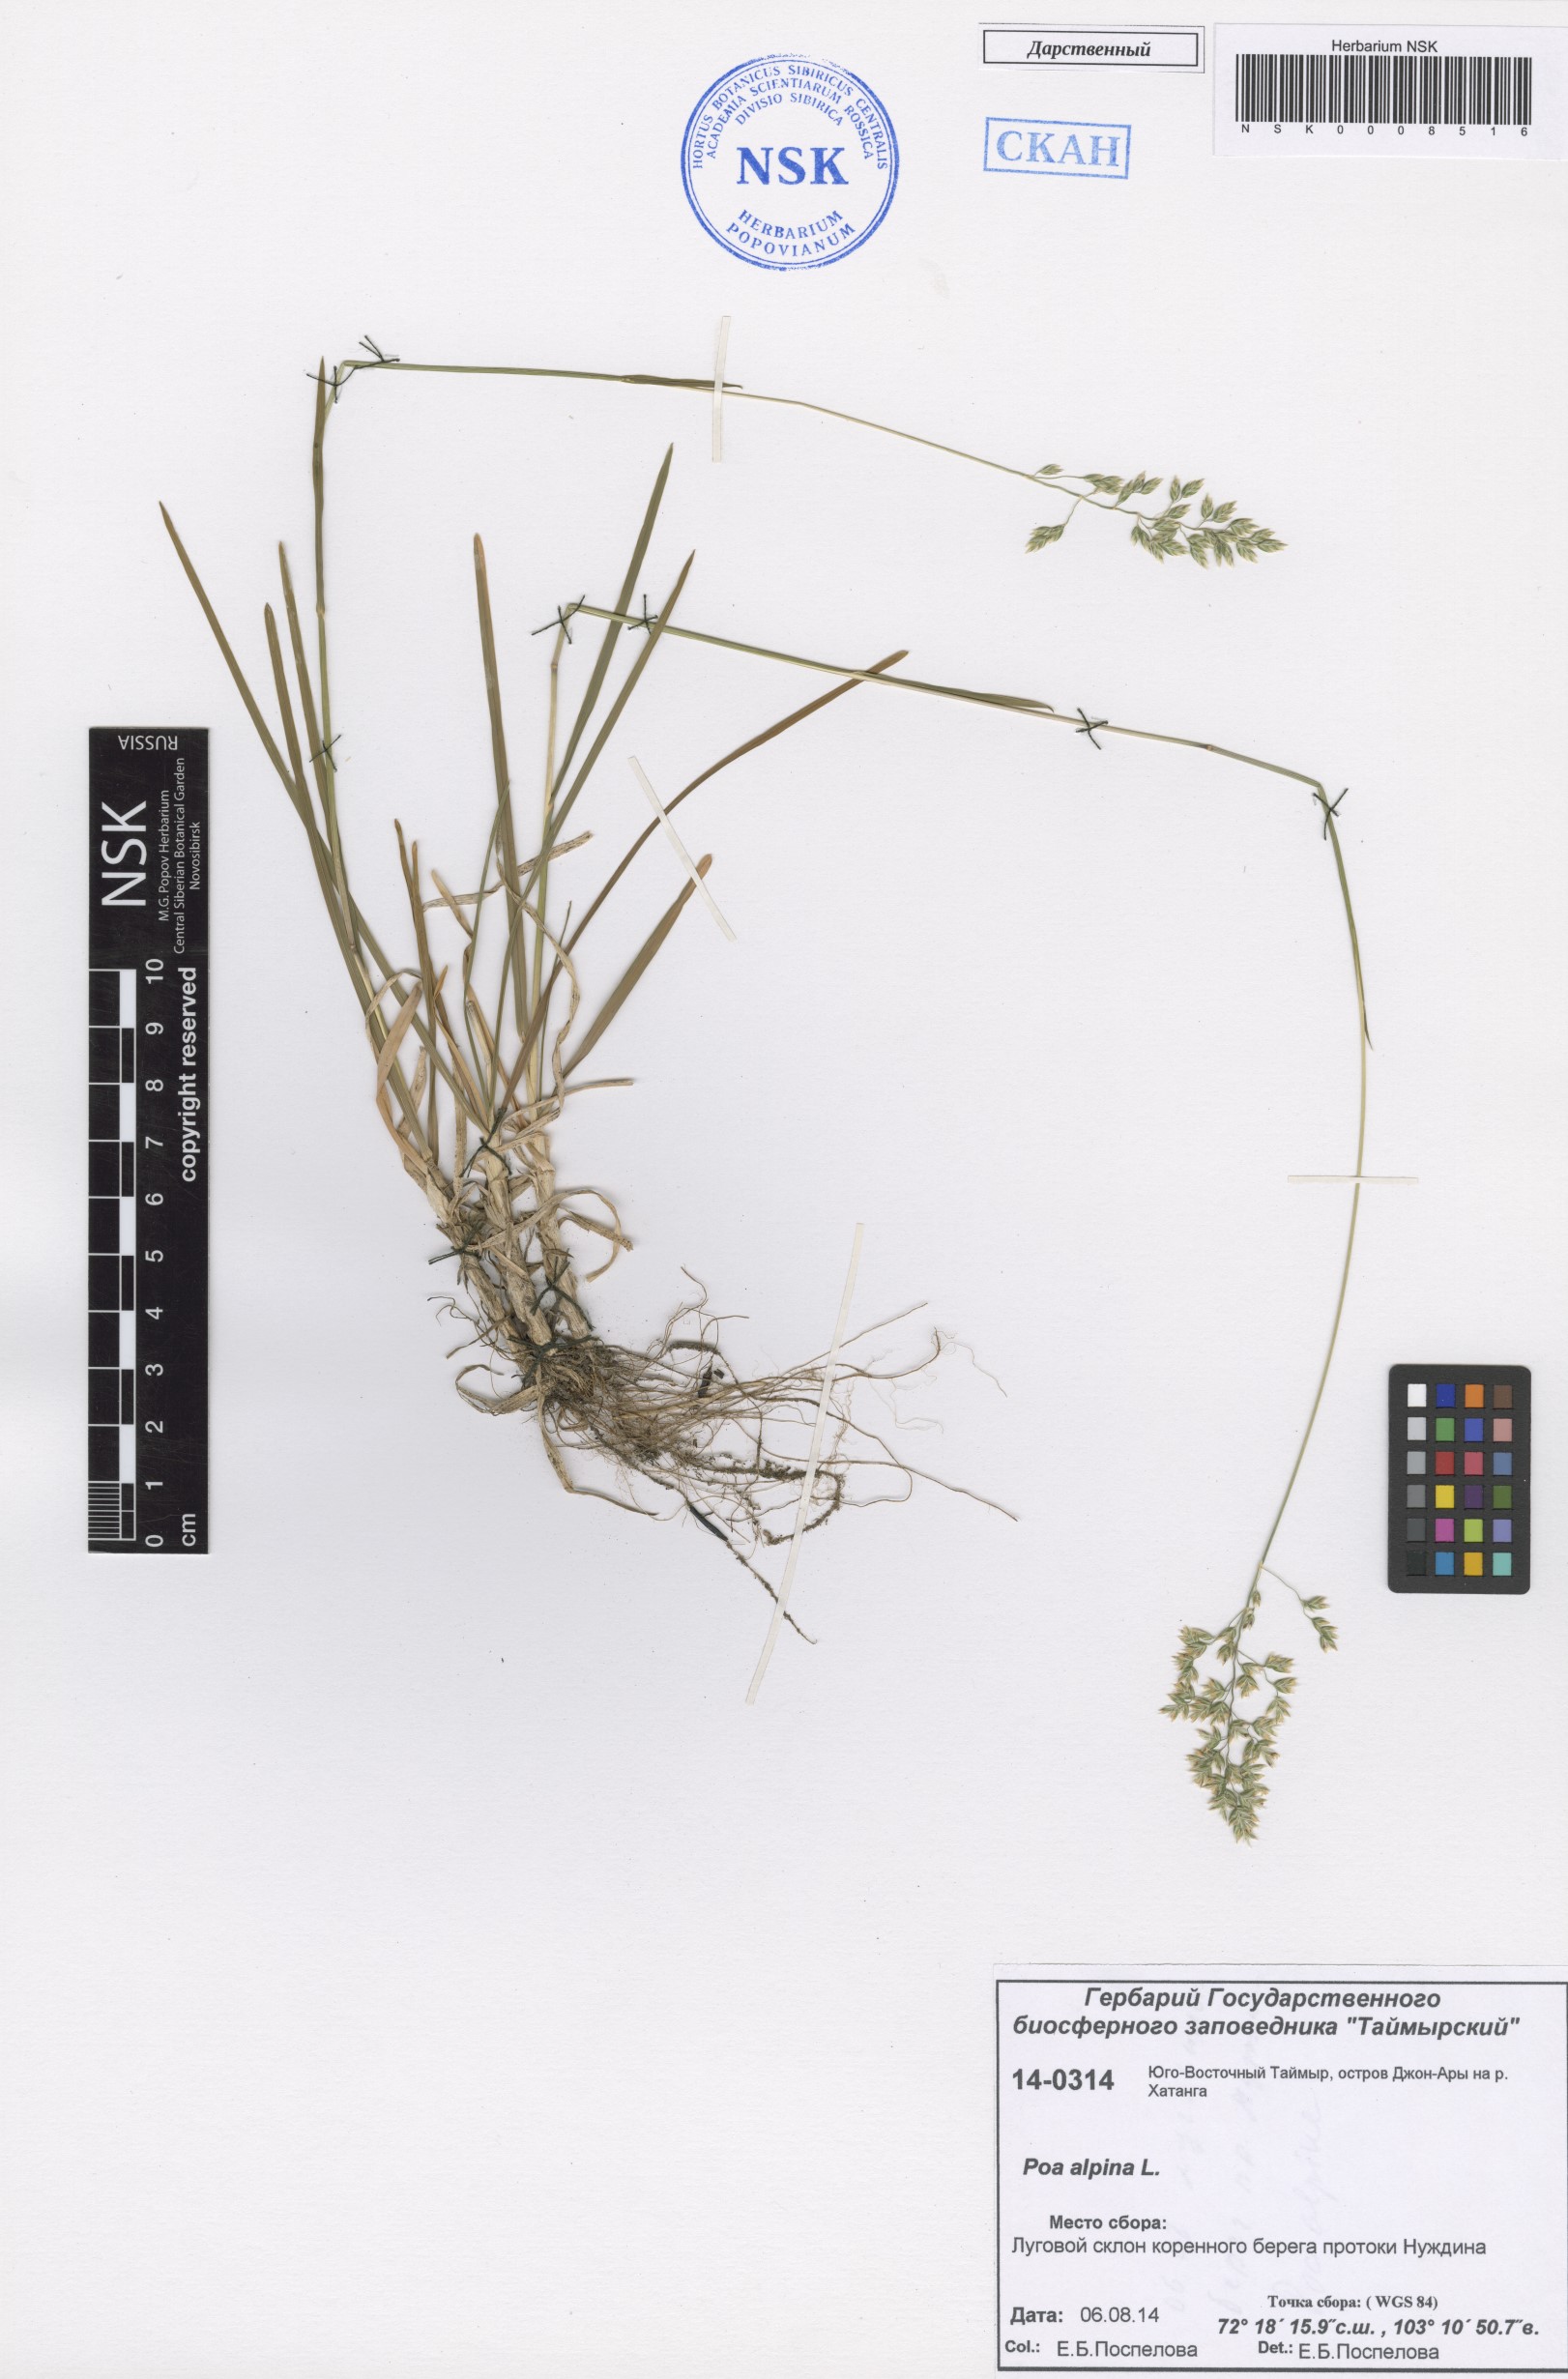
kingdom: Plantae
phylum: Tracheophyta
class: Liliopsida
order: Poales
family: Poaceae
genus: Poa
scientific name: Poa alpina
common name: Alpine bluegrass
